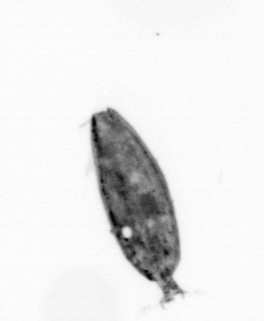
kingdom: Animalia
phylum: Arthropoda
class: Maxillopoda
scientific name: Maxillopoda
